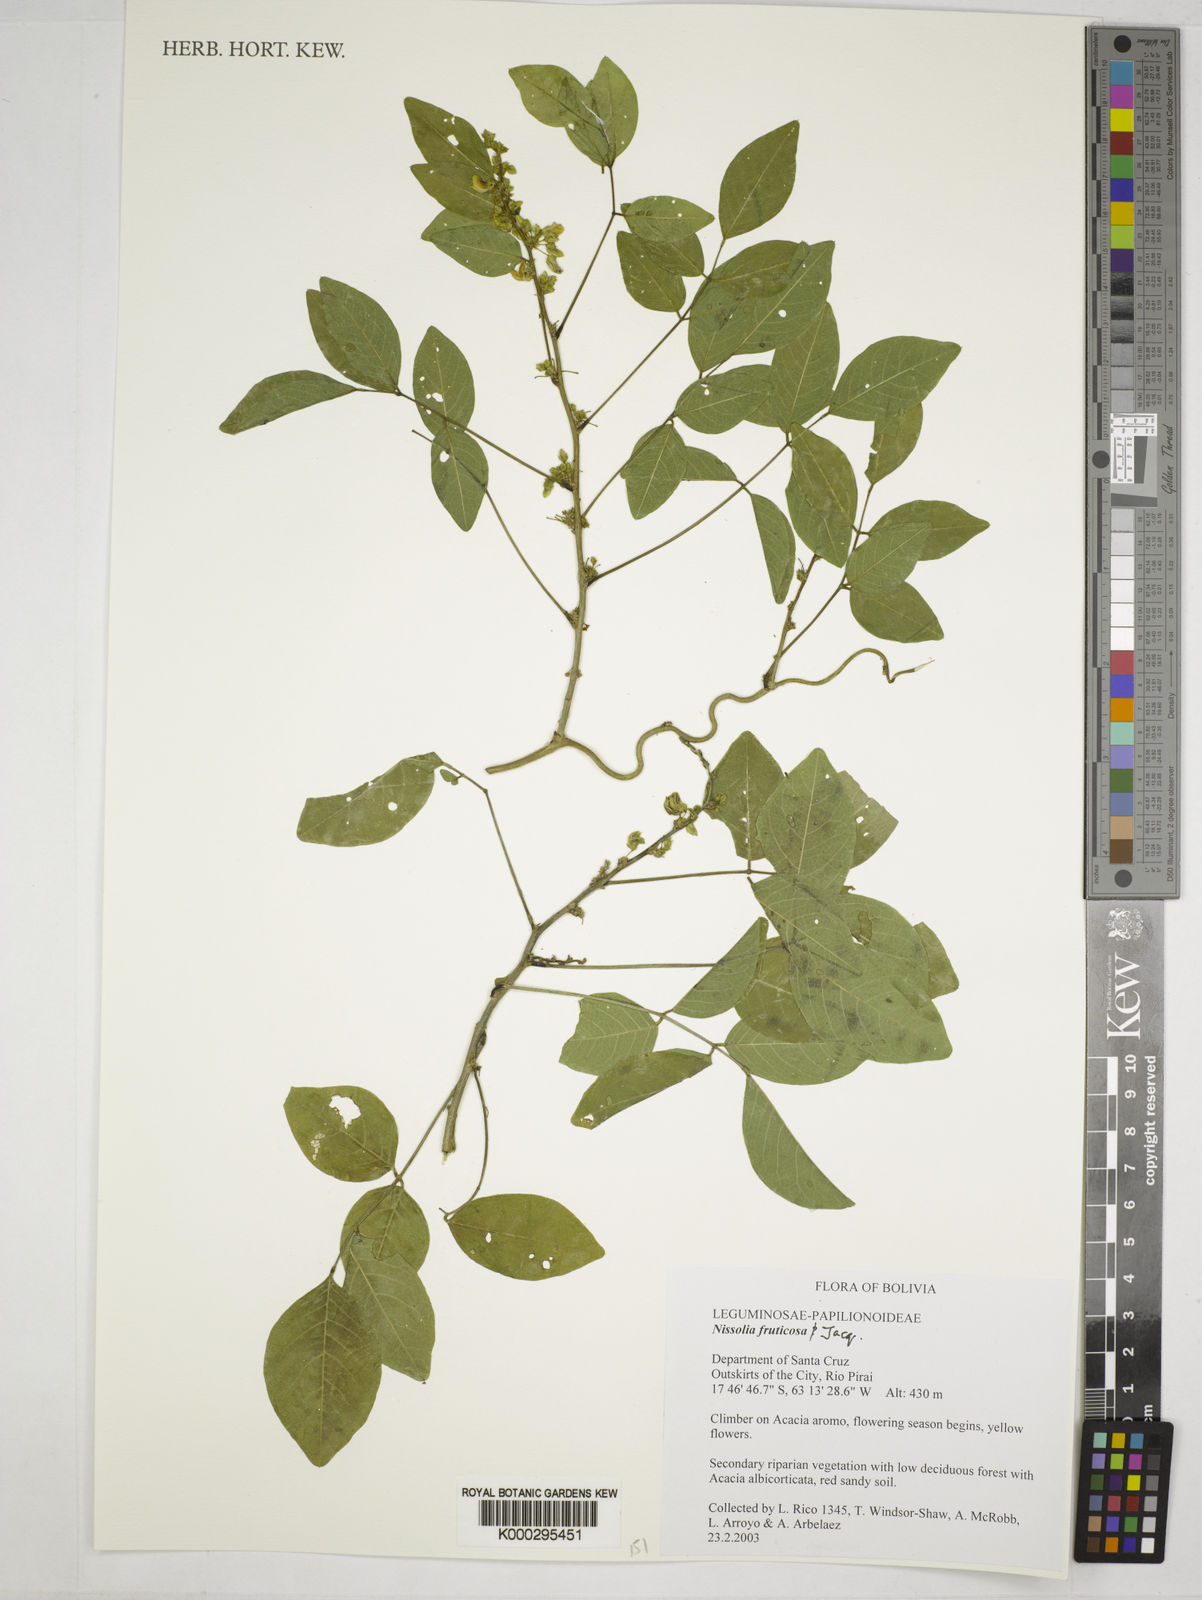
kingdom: Plantae
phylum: Tracheophyta
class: Magnoliopsida
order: Fabales
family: Fabaceae
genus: Nissolia
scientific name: Nissolia
